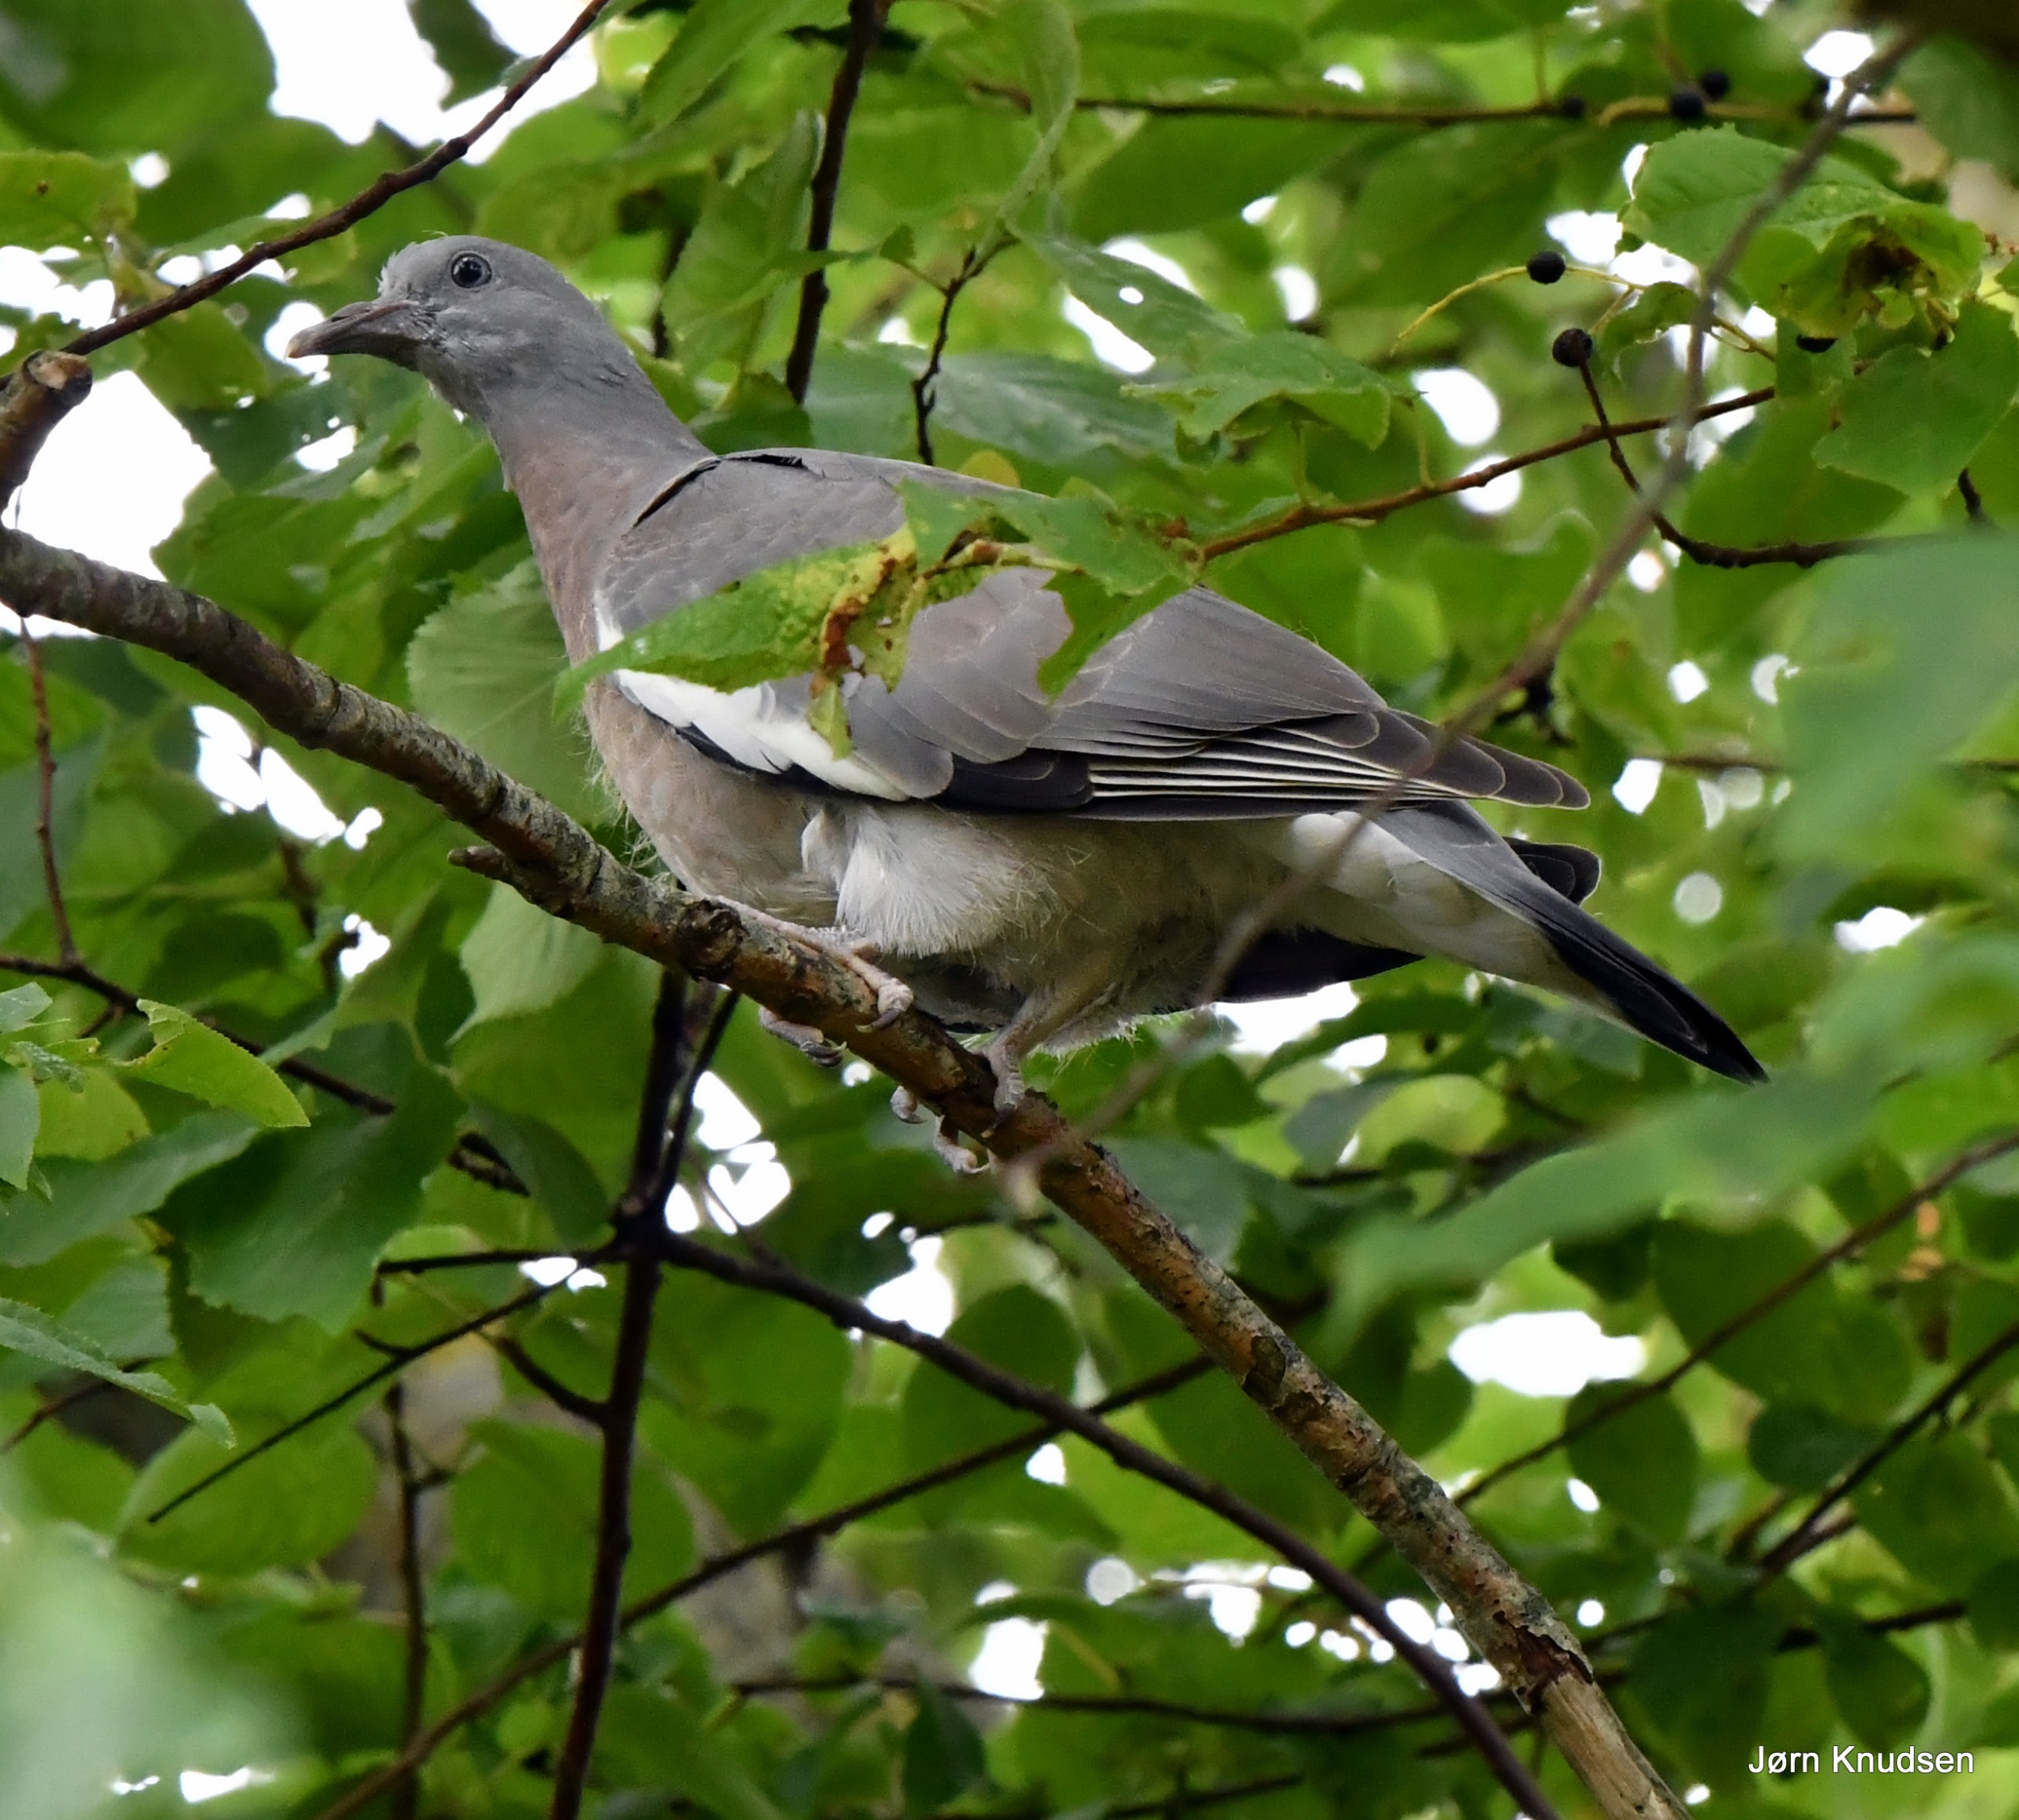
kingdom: Animalia
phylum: Chordata
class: Aves
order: Columbiformes
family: Columbidae
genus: Columba
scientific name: Columba palumbus
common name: Ringdue
